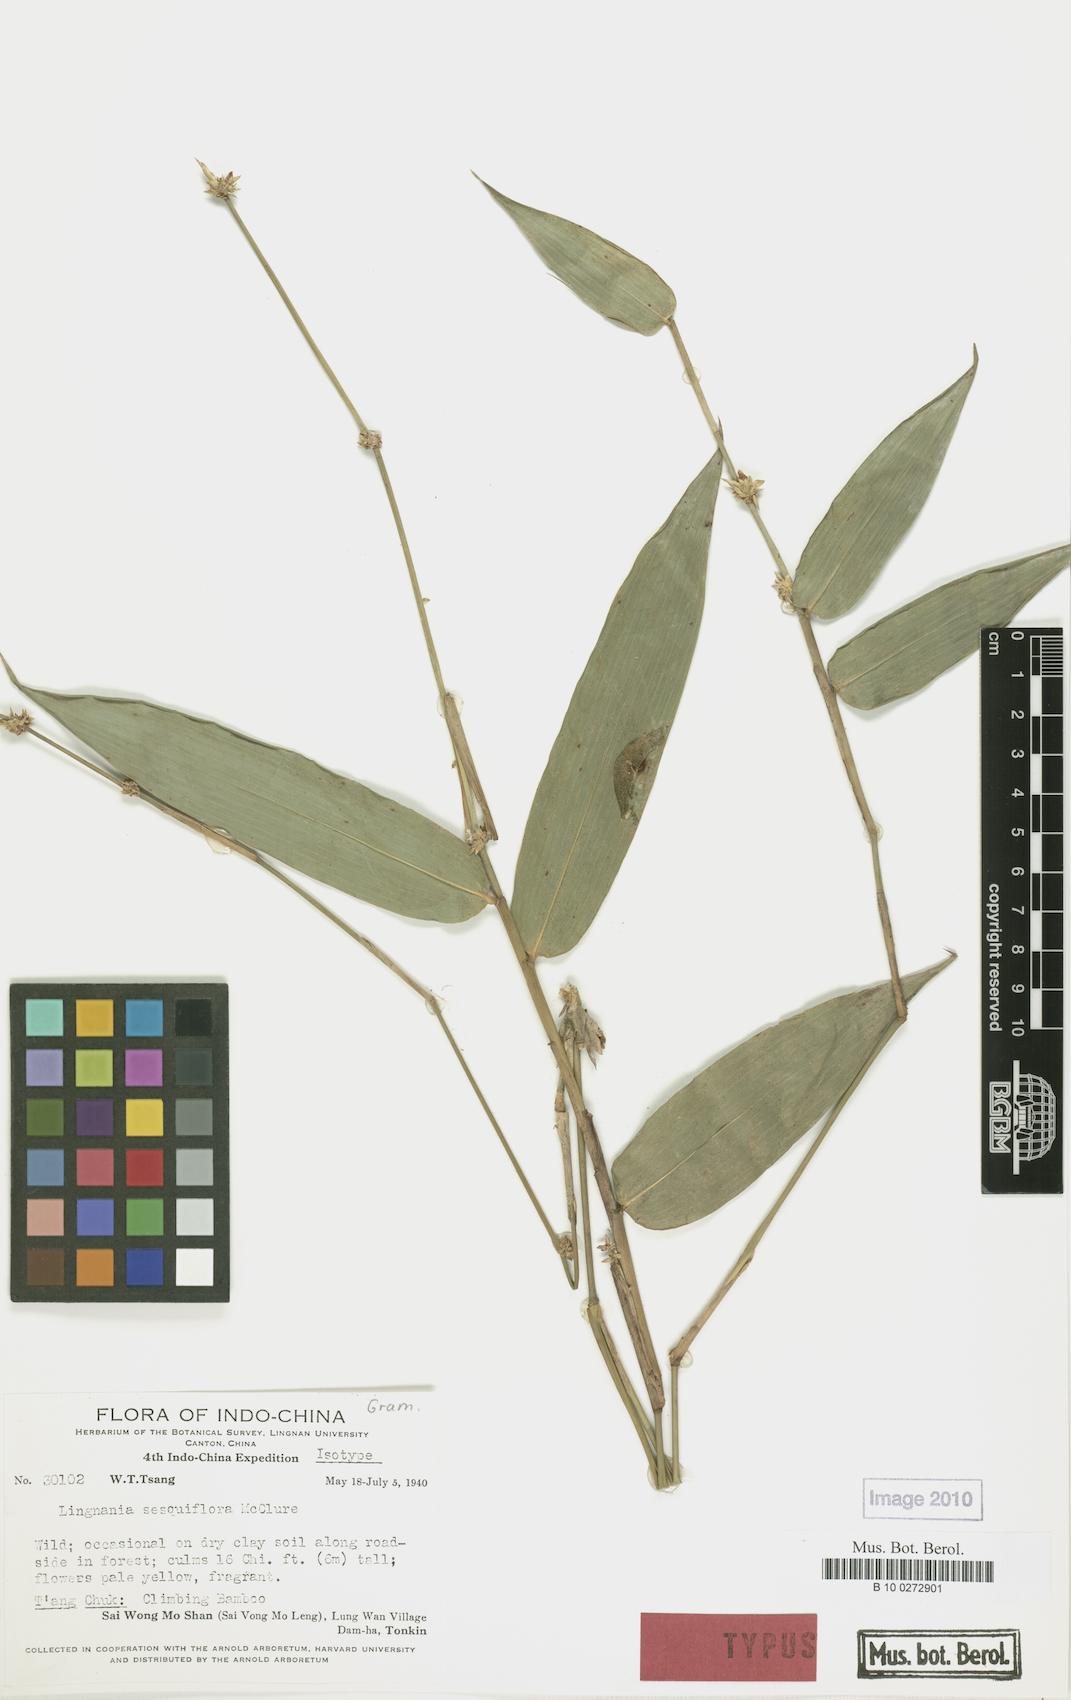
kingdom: Plantae
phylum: Tracheophyta
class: Liliopsida
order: Poales
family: Poaceae
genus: Bambusa
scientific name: Bambusa sesquiflora
